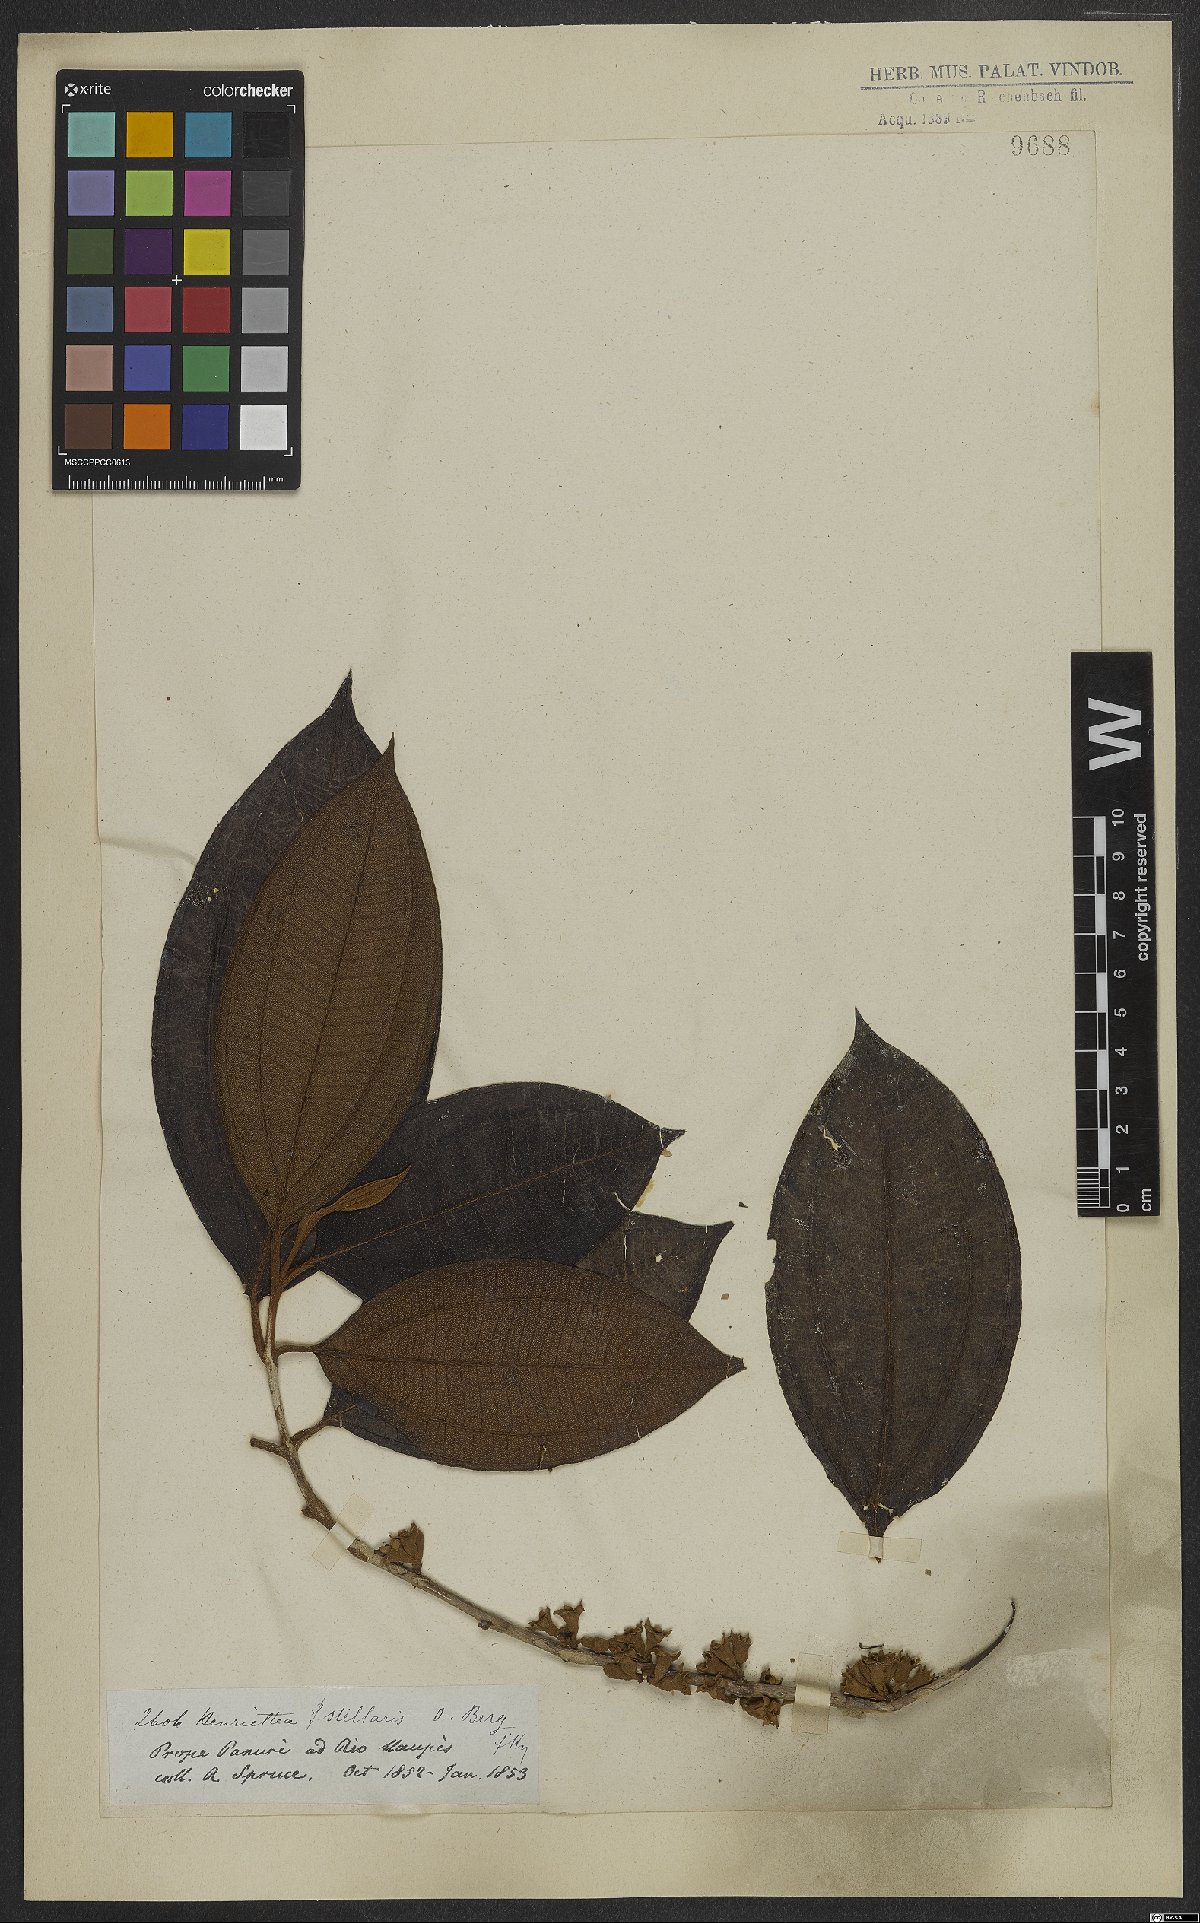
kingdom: Plantae
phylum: Tracheophyta
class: Magnoliopsida
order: Myrtales
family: Melastomataceae
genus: Henriettea
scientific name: Henriettea stellaris
